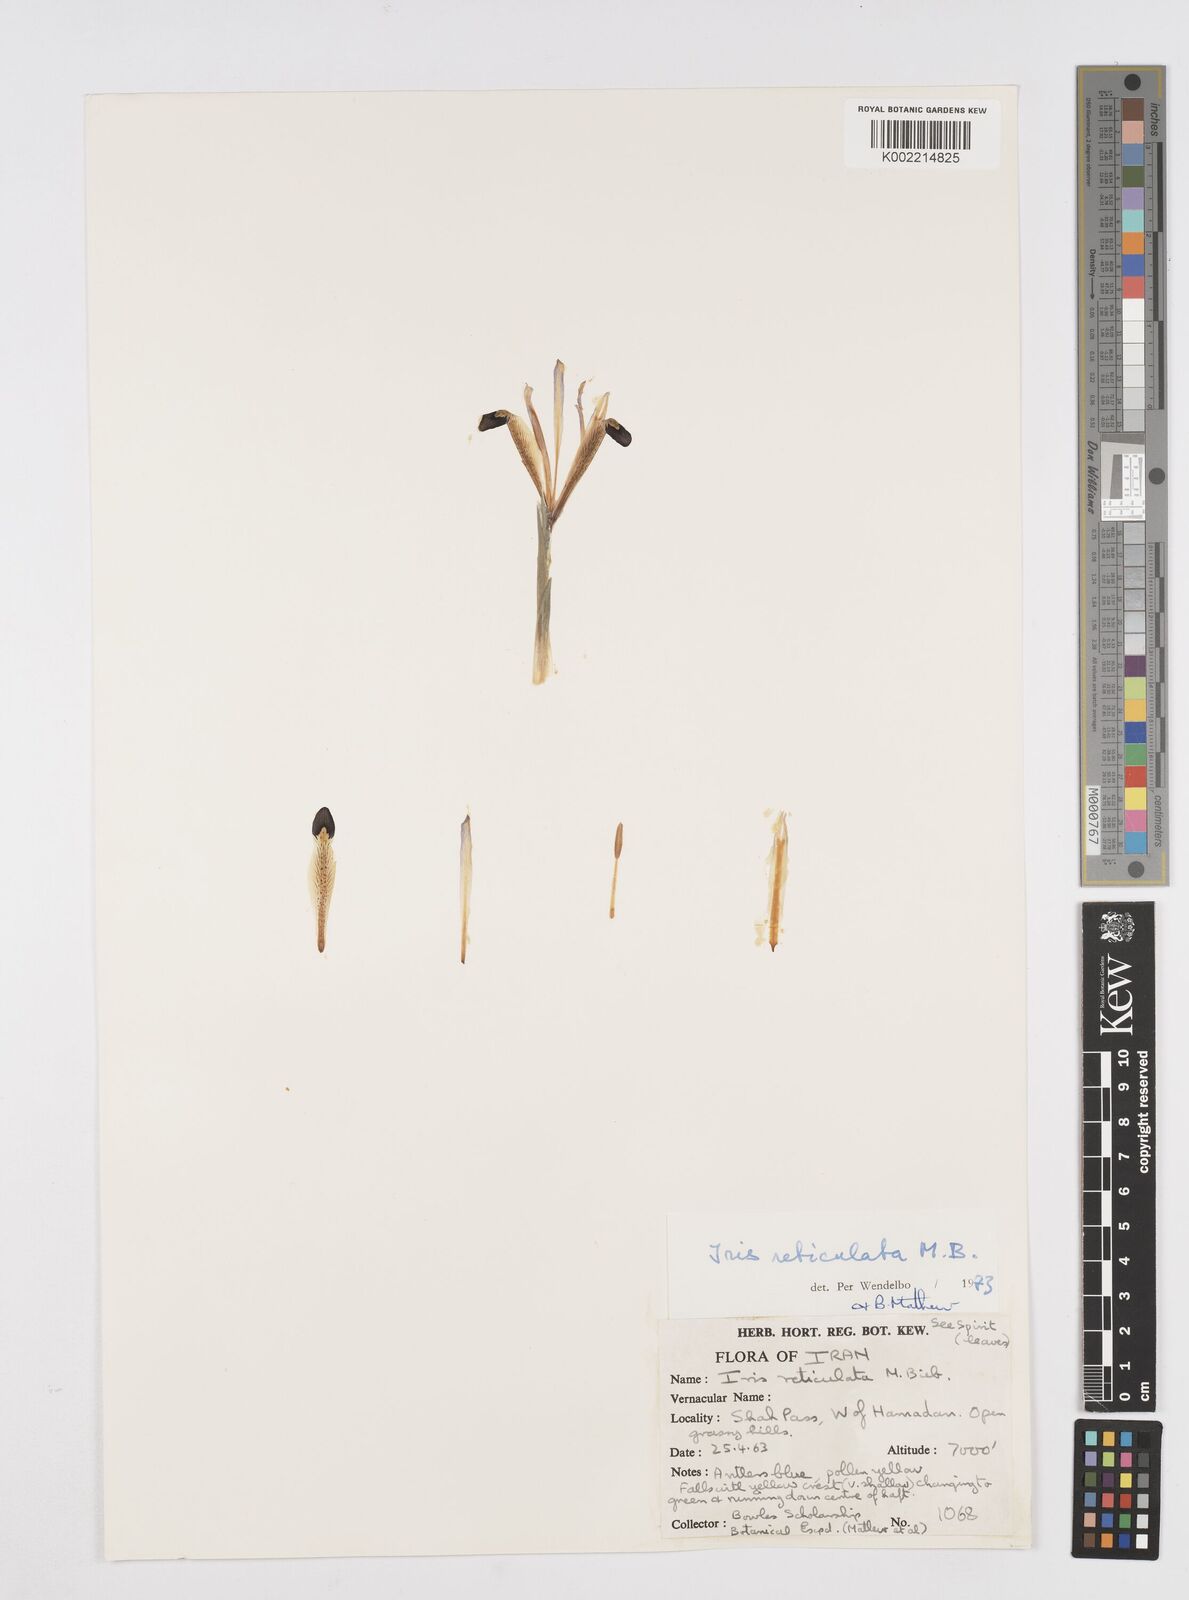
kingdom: Plantae
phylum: Tracheophyta
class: Liliopsida
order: Asparagales
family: Iridaceae
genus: Iris
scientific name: Iris reticulata
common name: Netted iris
